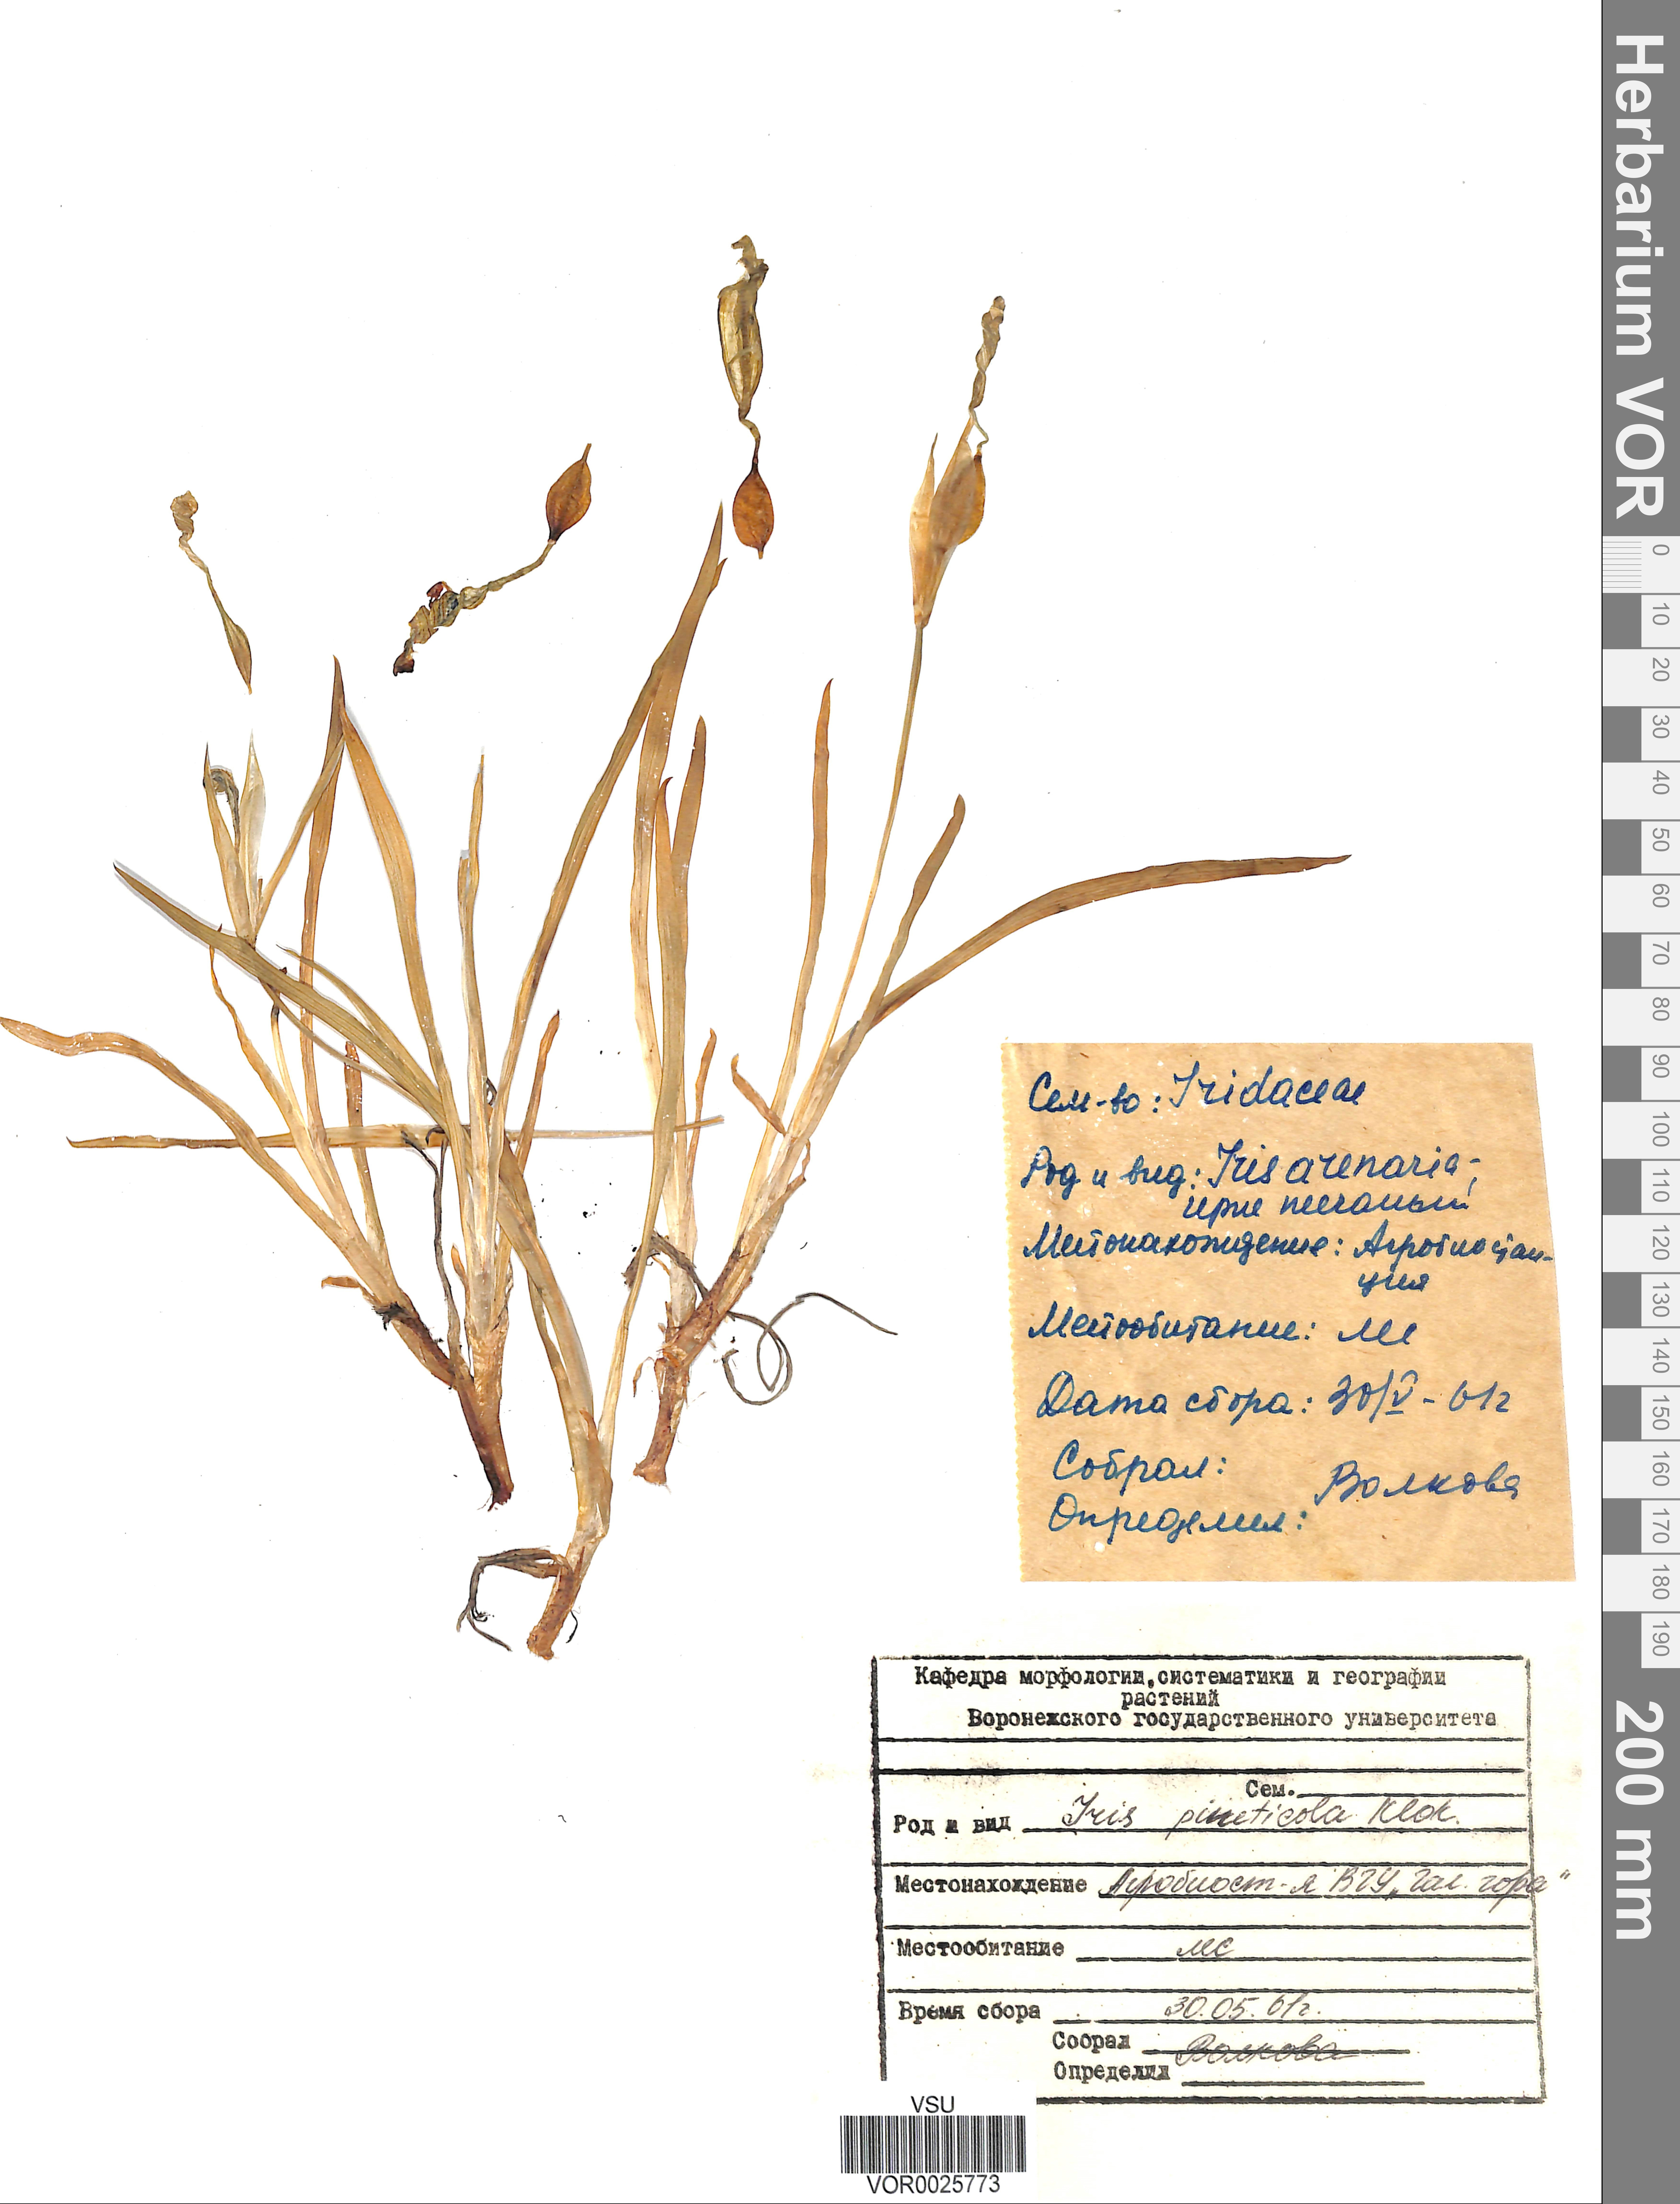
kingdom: Plantae
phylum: Tracheophyta
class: Liliopsida
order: Asparagales
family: Iridaceae
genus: Iris
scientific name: Iris pseudacorus
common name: Yellow flag
